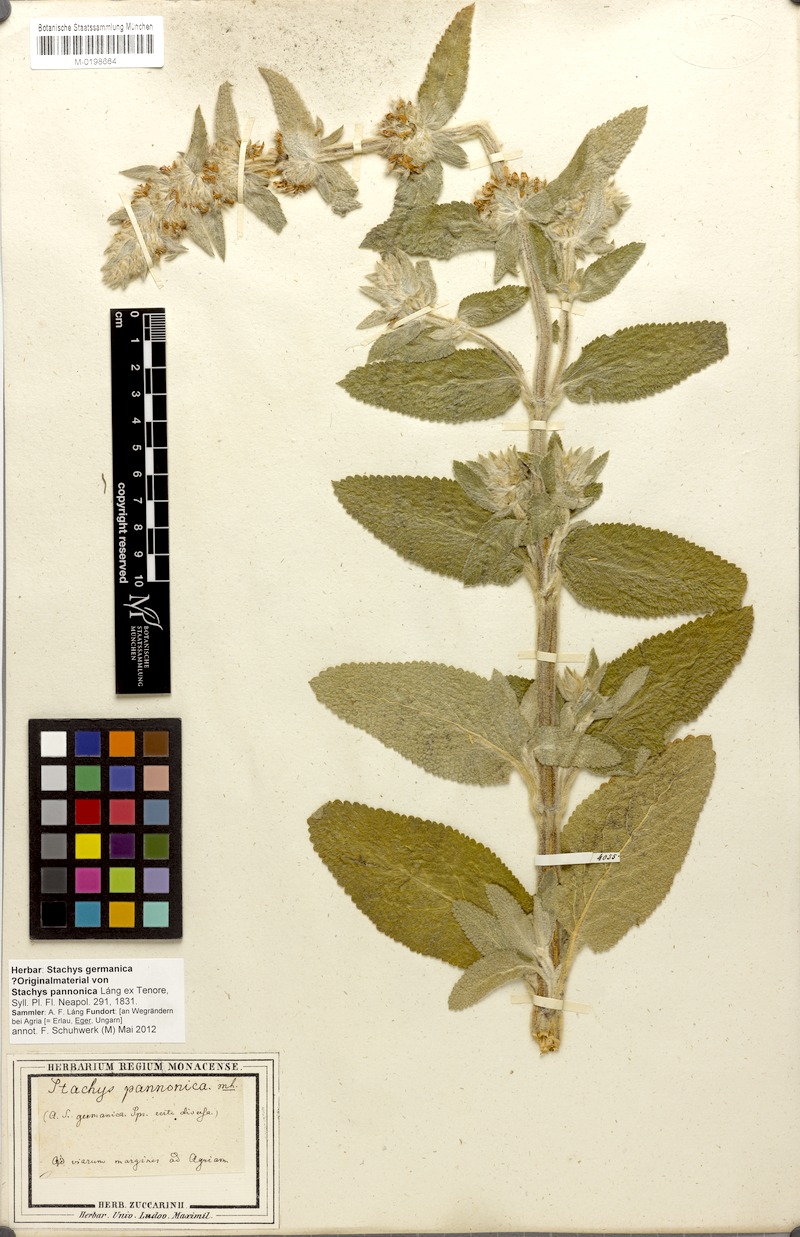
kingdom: Plantae
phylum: Tracheophyta
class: Magnoliopsida
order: Lamiales
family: Lamiaceae
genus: Stachys
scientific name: Stachys germanica
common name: Downy woundwort
